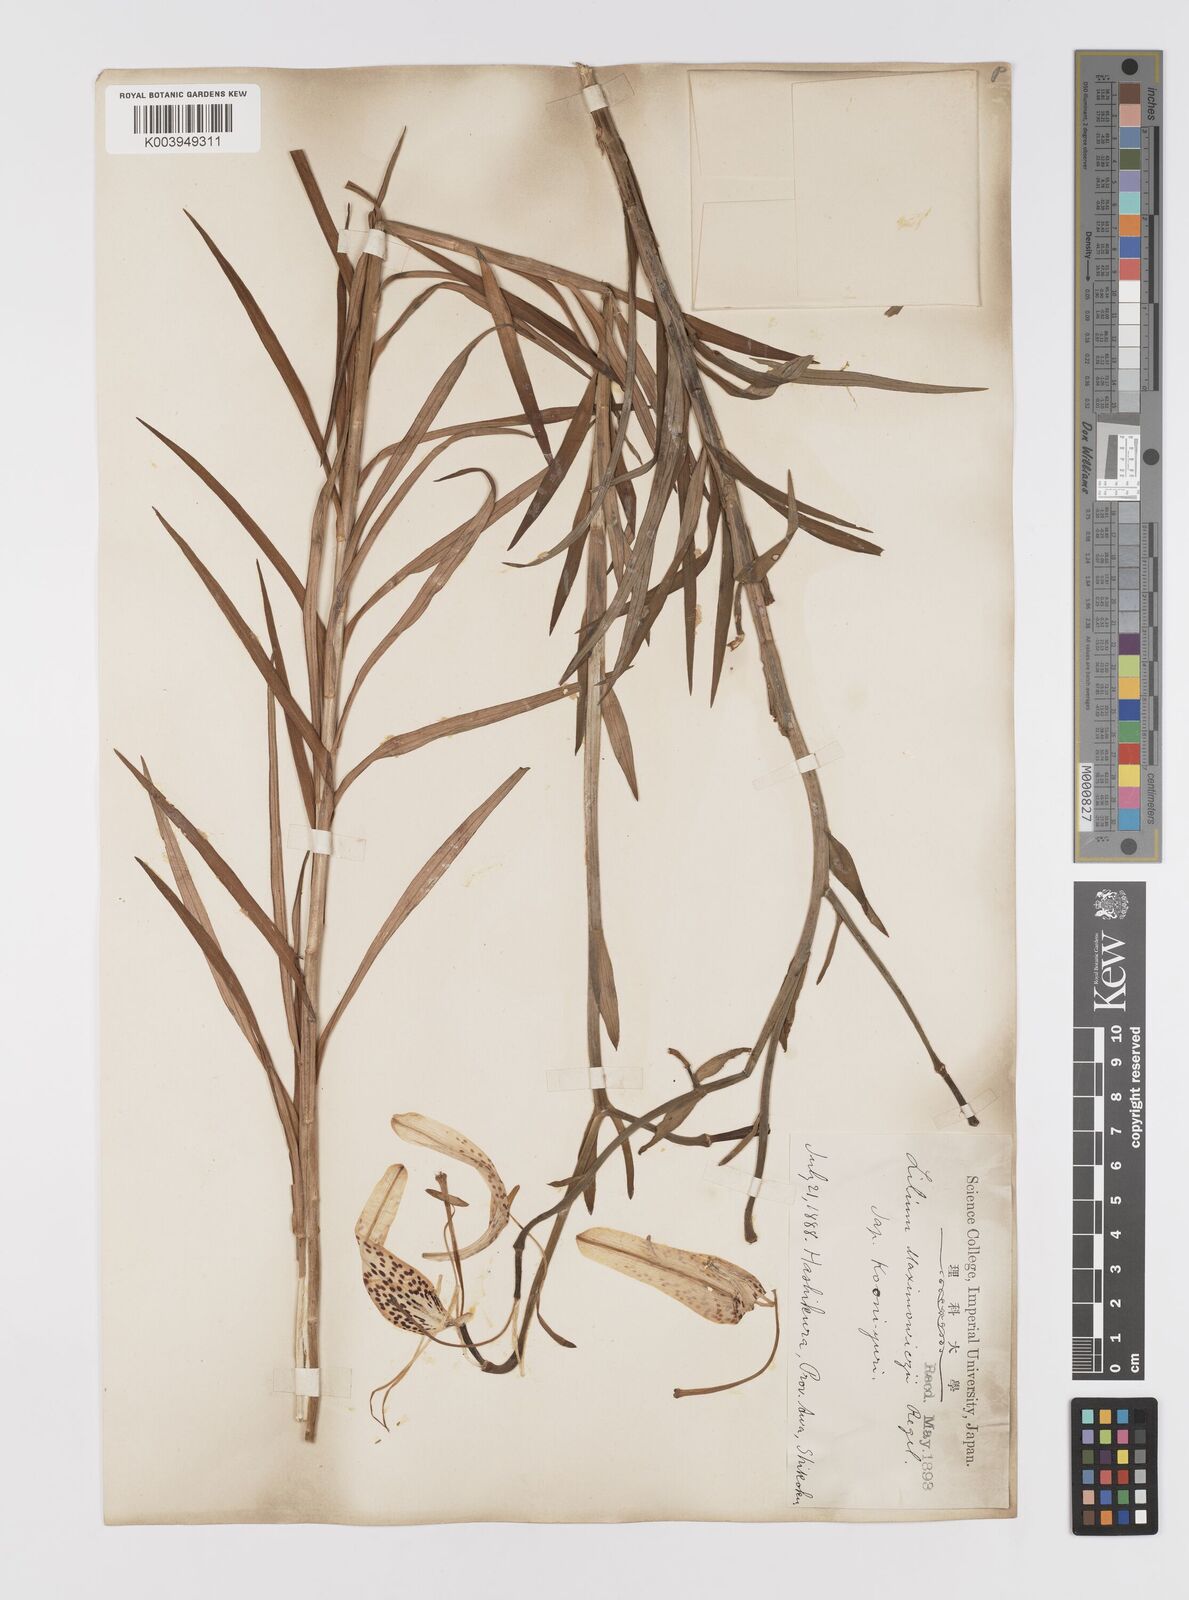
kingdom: Plantae
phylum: Tracheophyta
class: Liliopsida
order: Liliales
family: Liliaceae
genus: Lilium
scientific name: Lilium leichtlinii
